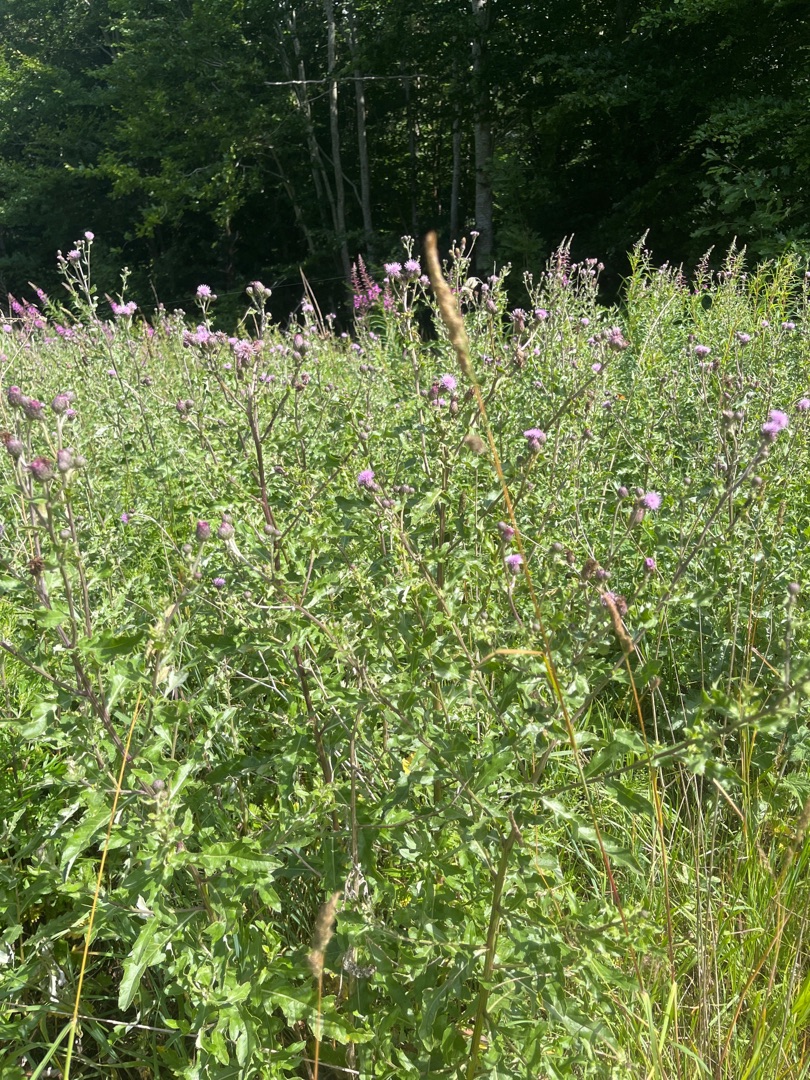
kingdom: Plantae
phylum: Tracheophyta
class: Magnoliopsida
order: Asterales
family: Asteraceae
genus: Cirsium
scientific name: Cirsium arvense
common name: Ager-tidsel
